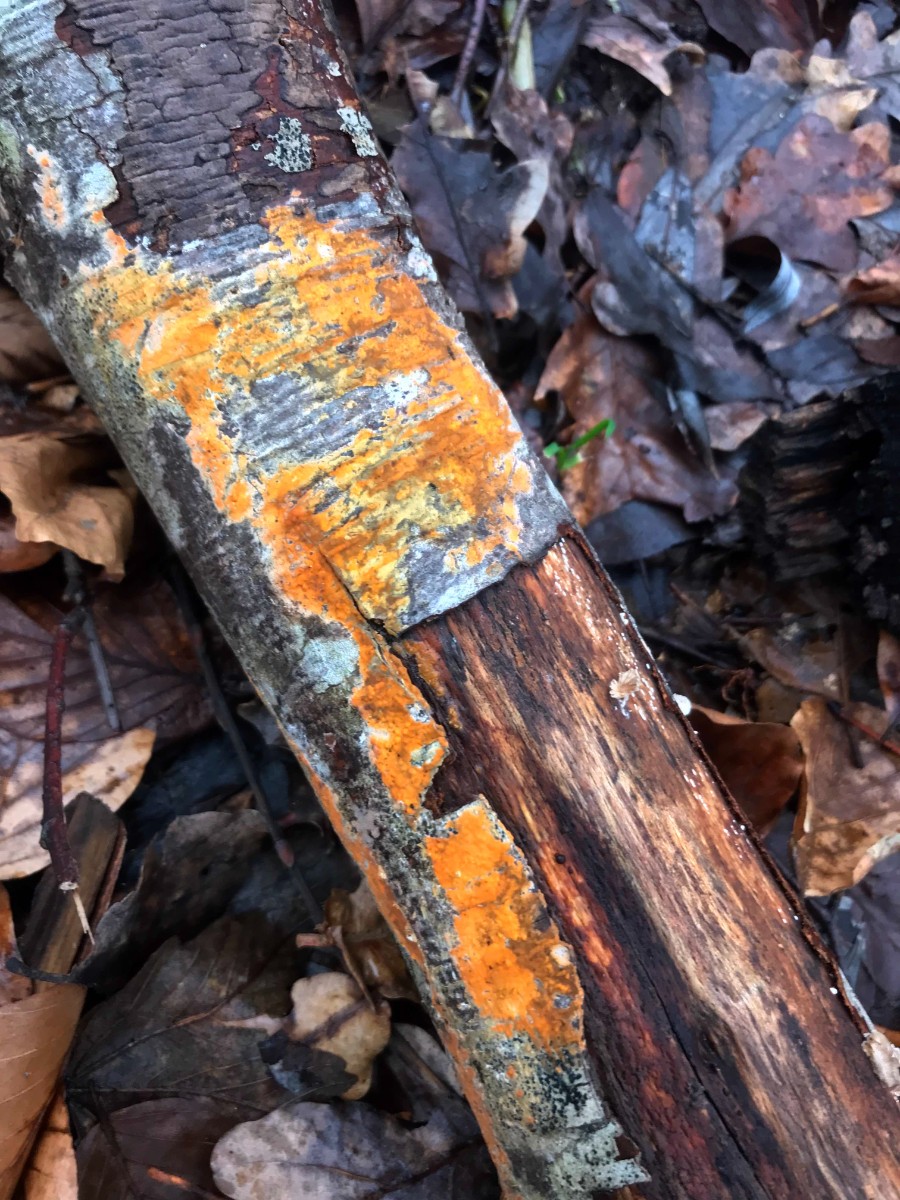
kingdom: Fungi
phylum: Basidiomycota
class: Agaricomycetes
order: Russulales
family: Peniophoraceae
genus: Peniophora
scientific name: Peniophora incarnata
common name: laksefarvet voksskind
